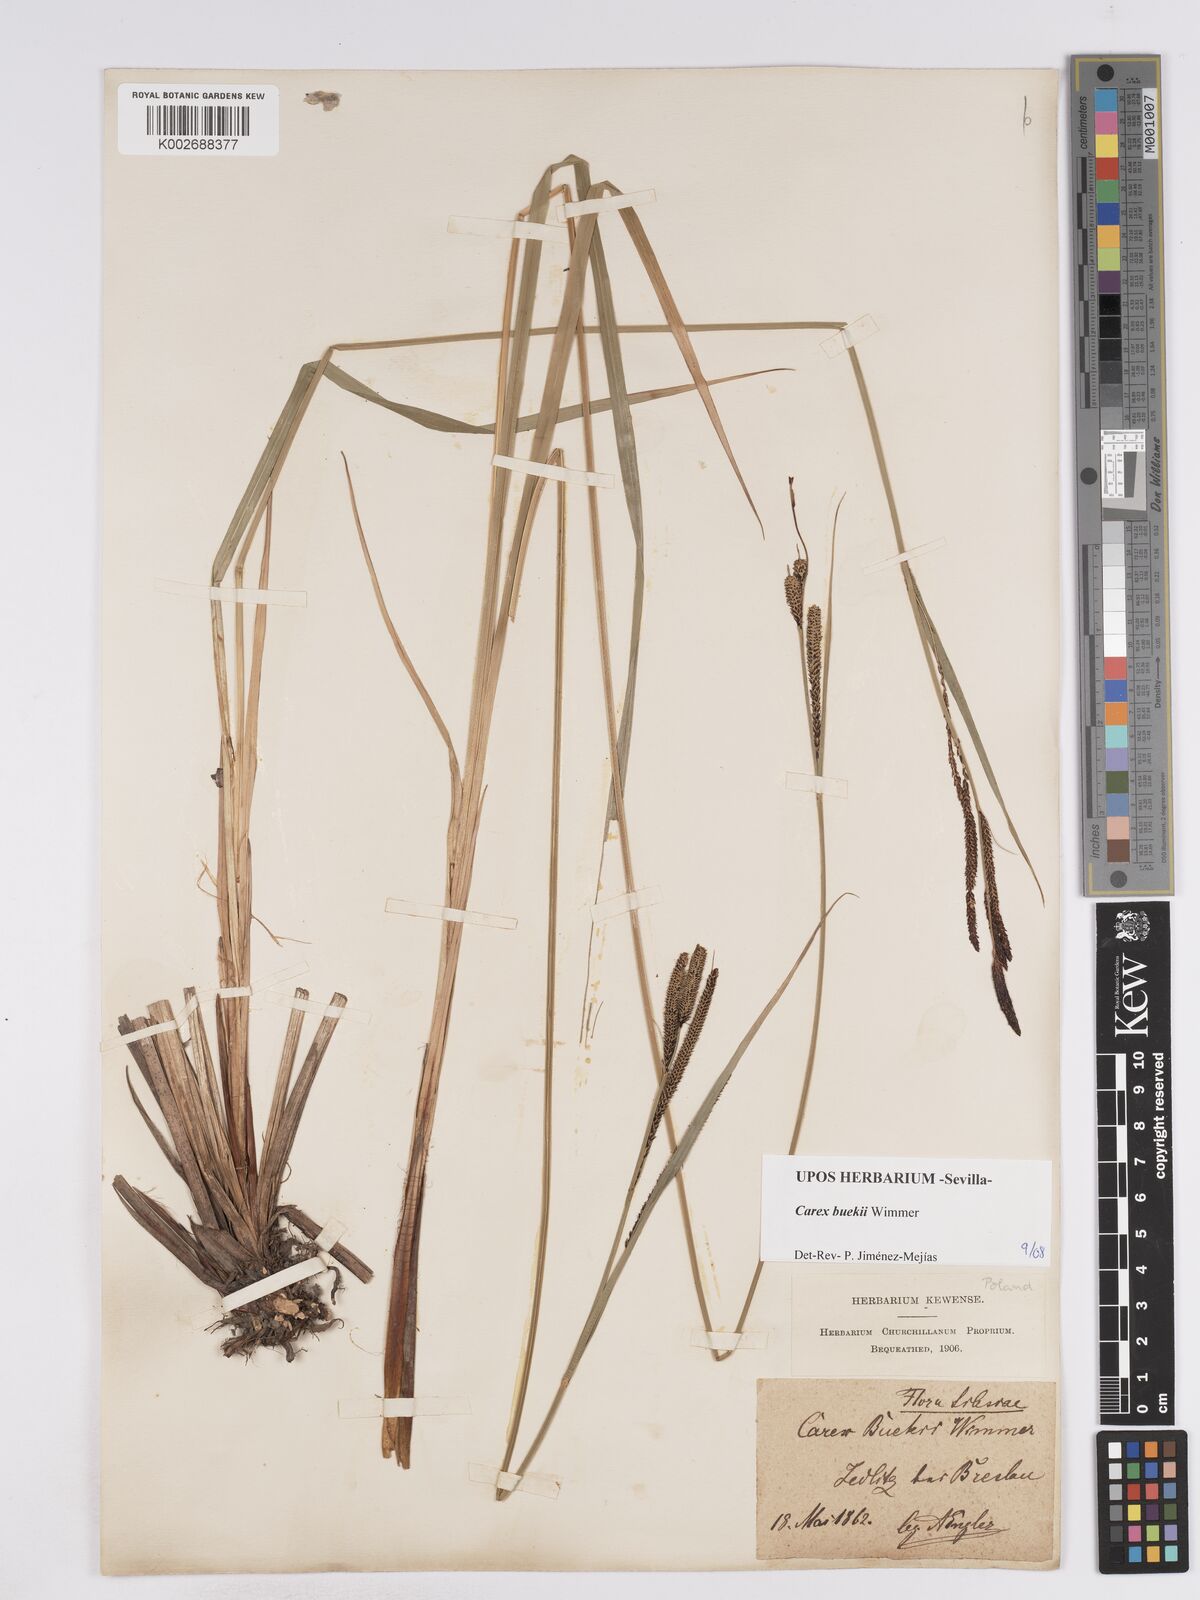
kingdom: Plantae
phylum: Tracheophyta
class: Liliopsida
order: Poales
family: Cyperaceae
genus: Carex
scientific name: Carex buekii
